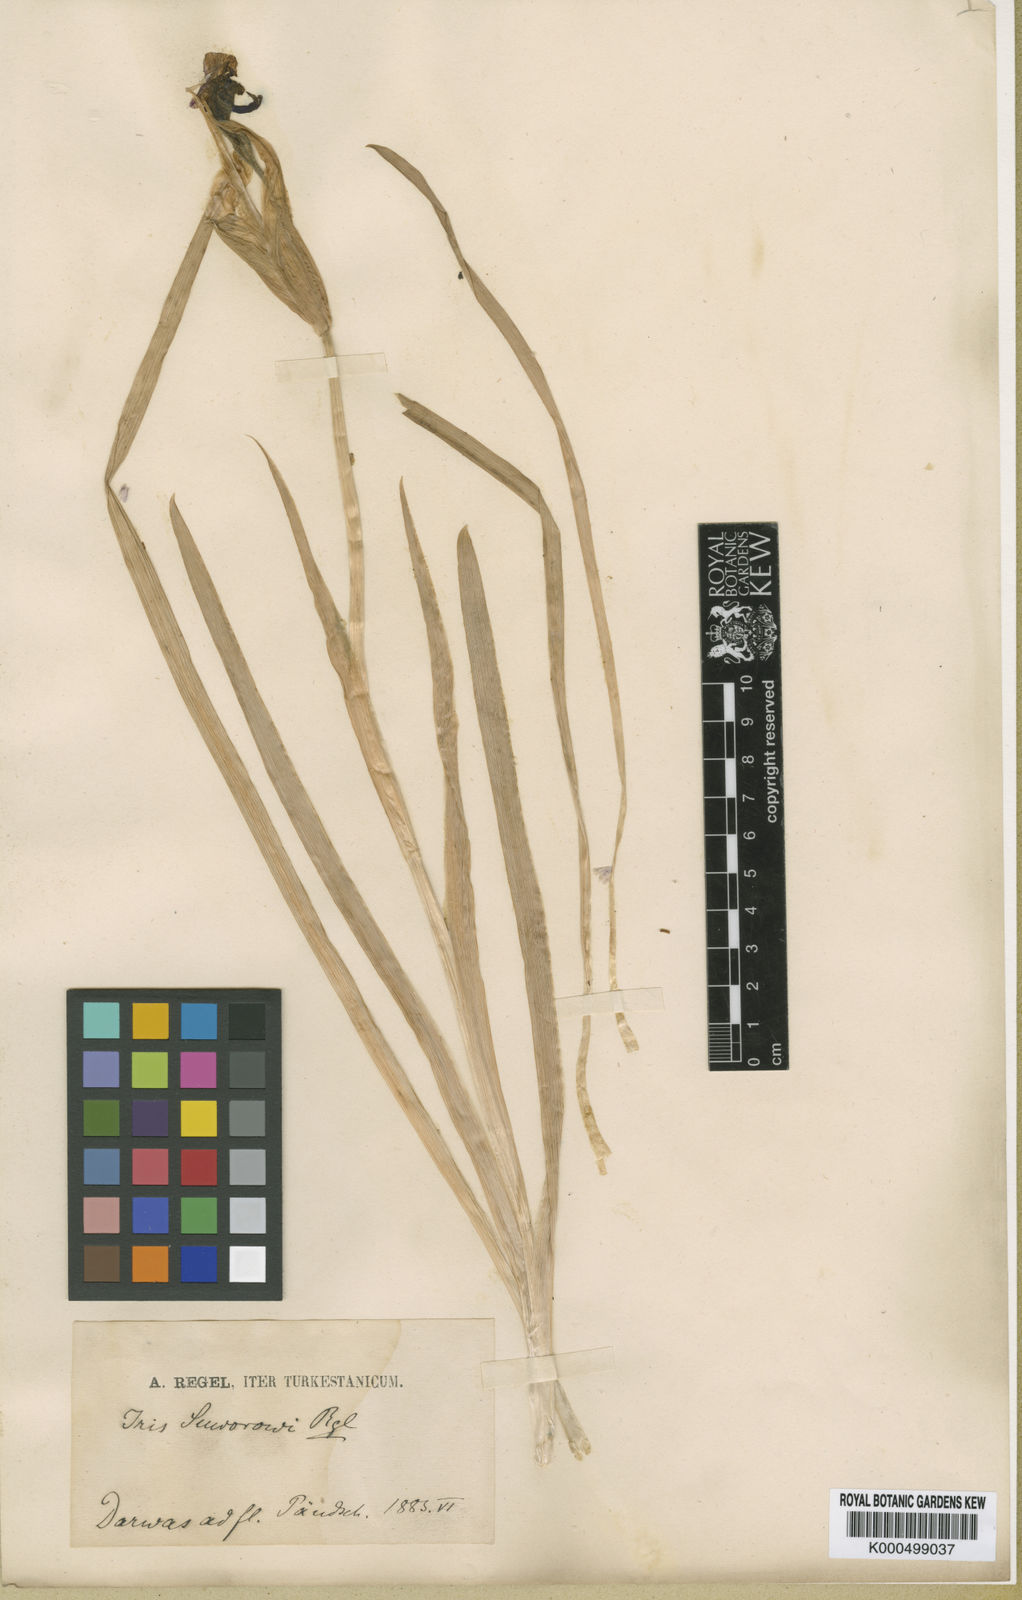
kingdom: Plantae
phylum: Tracheophyta
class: Liliopsida
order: Asparagales
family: Iridaceae
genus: Iris
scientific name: Iris darwasica
